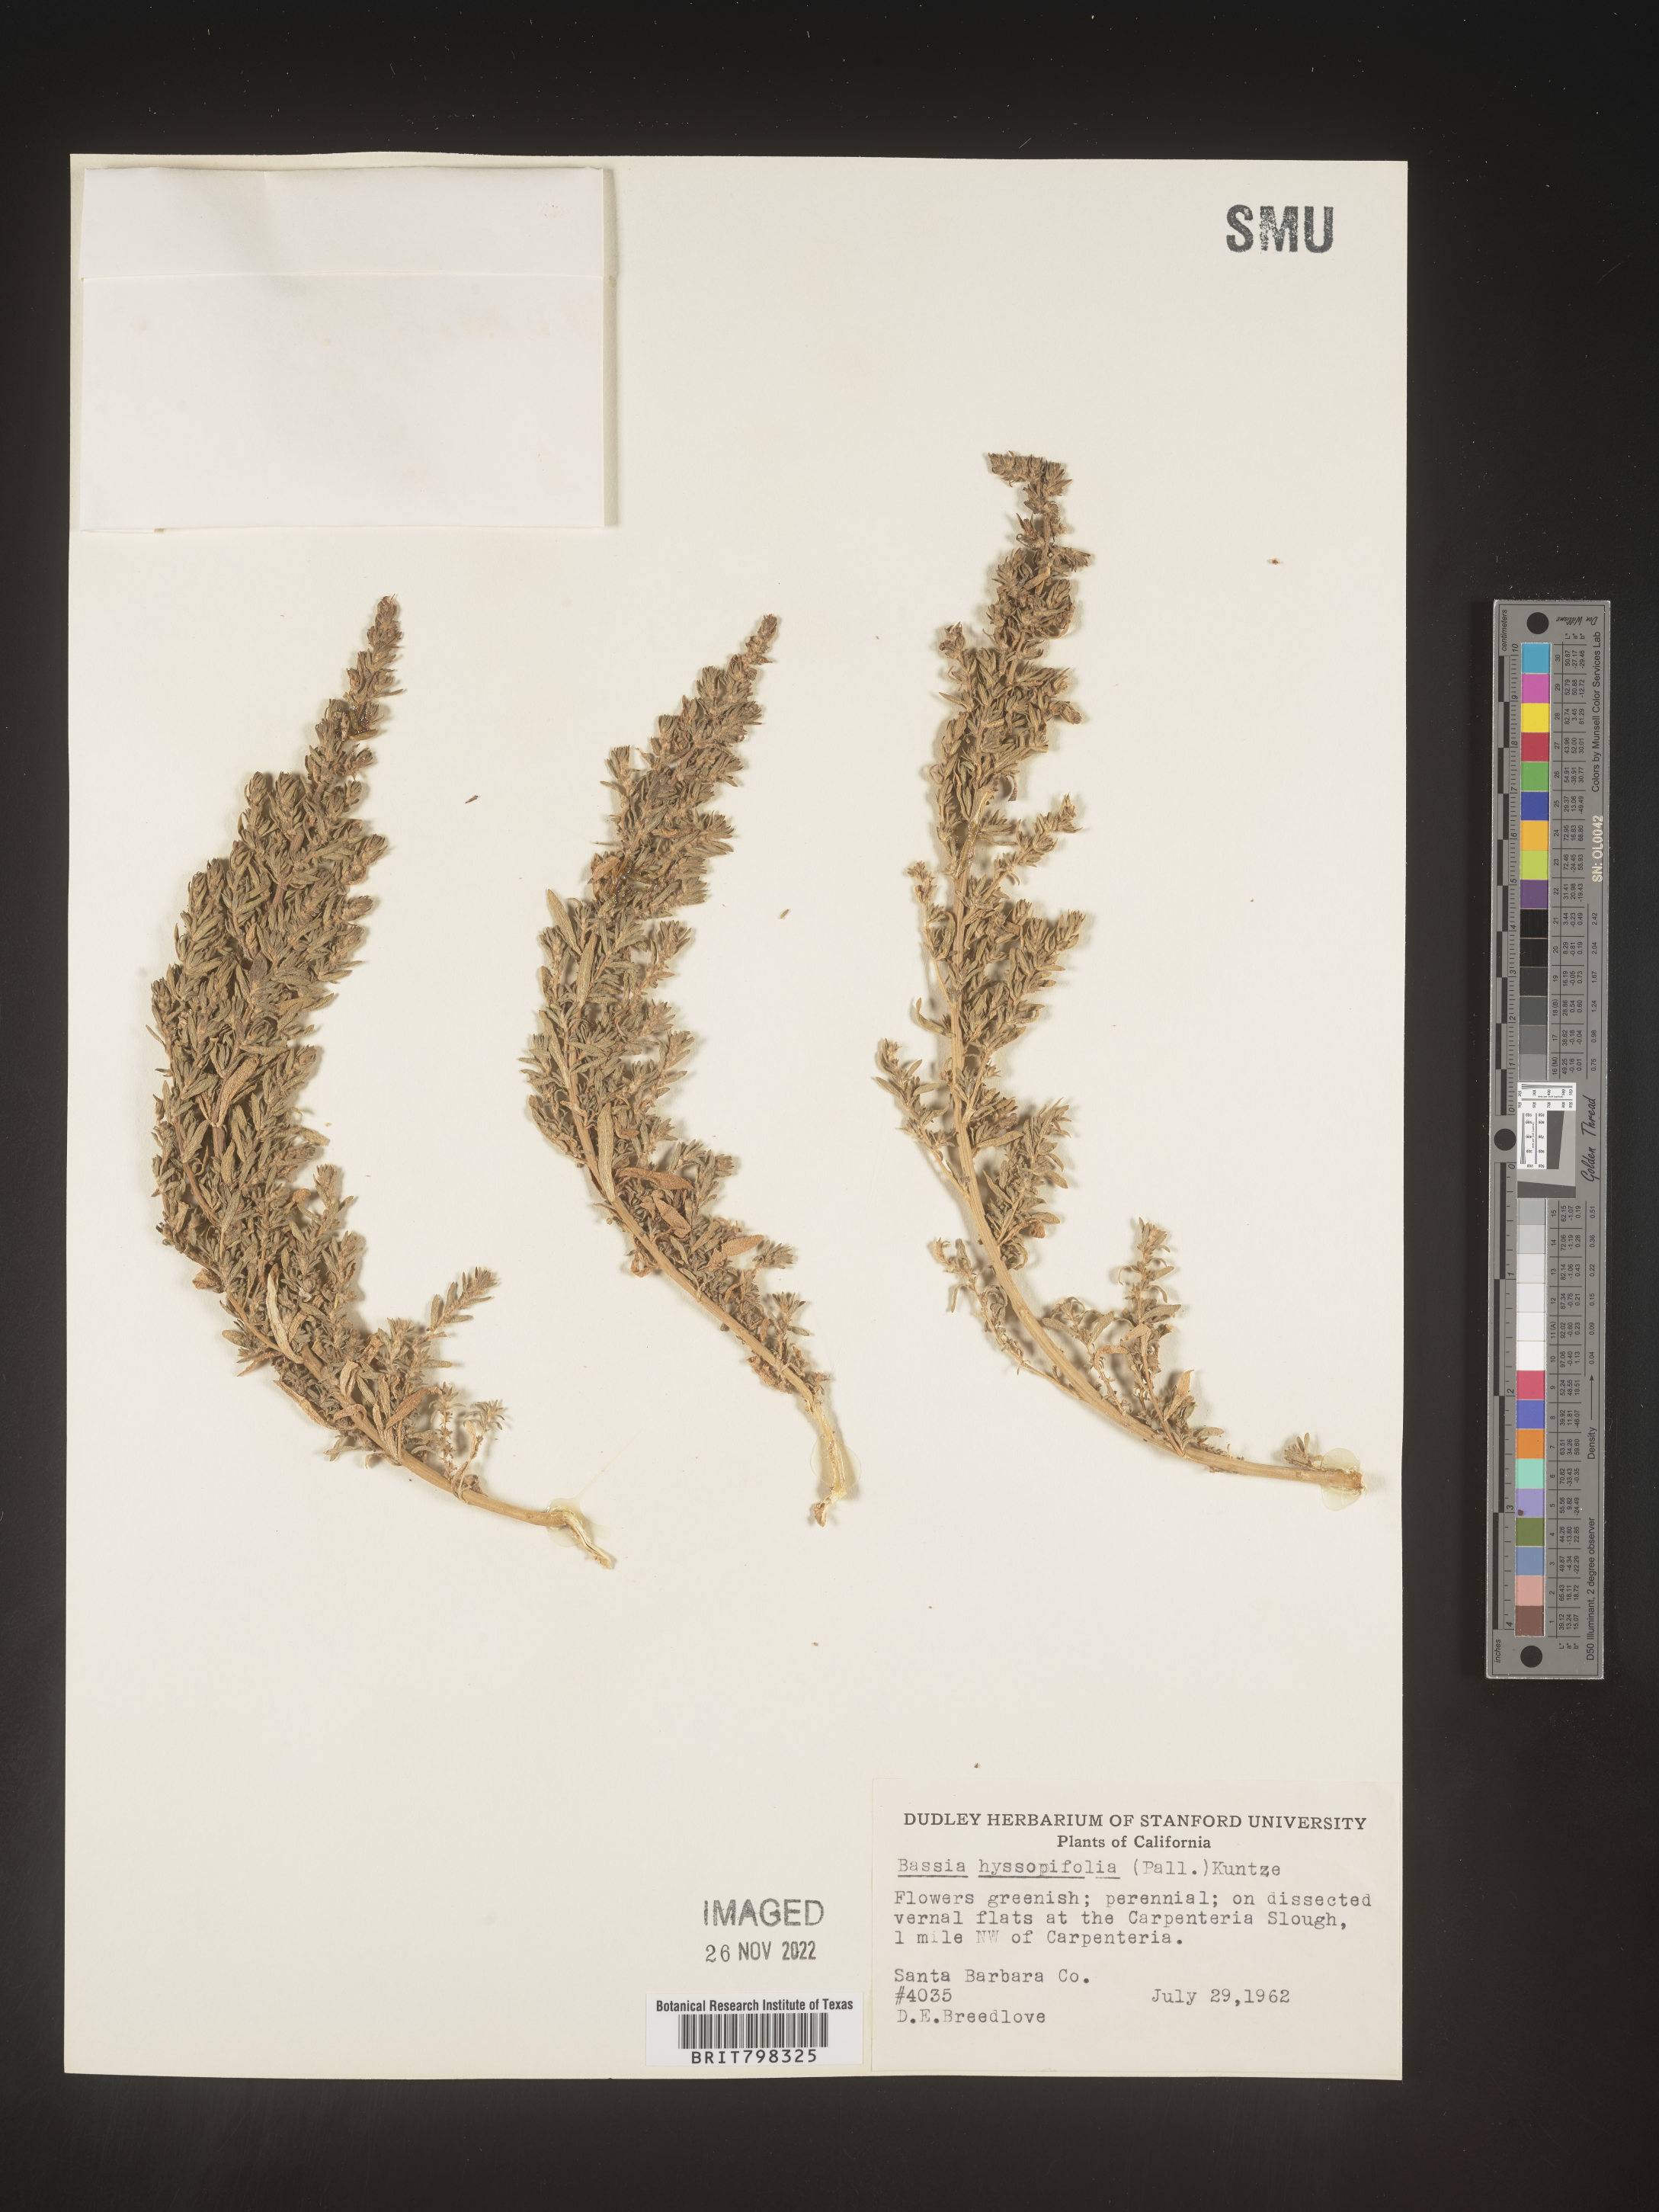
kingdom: Plantae
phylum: Tracheophyta
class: Magnoliopsida
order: Caryophyllales
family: Amaranthaceae
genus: Bassia
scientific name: Bassia hyssopifolia
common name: Fivehorn smotherweed
